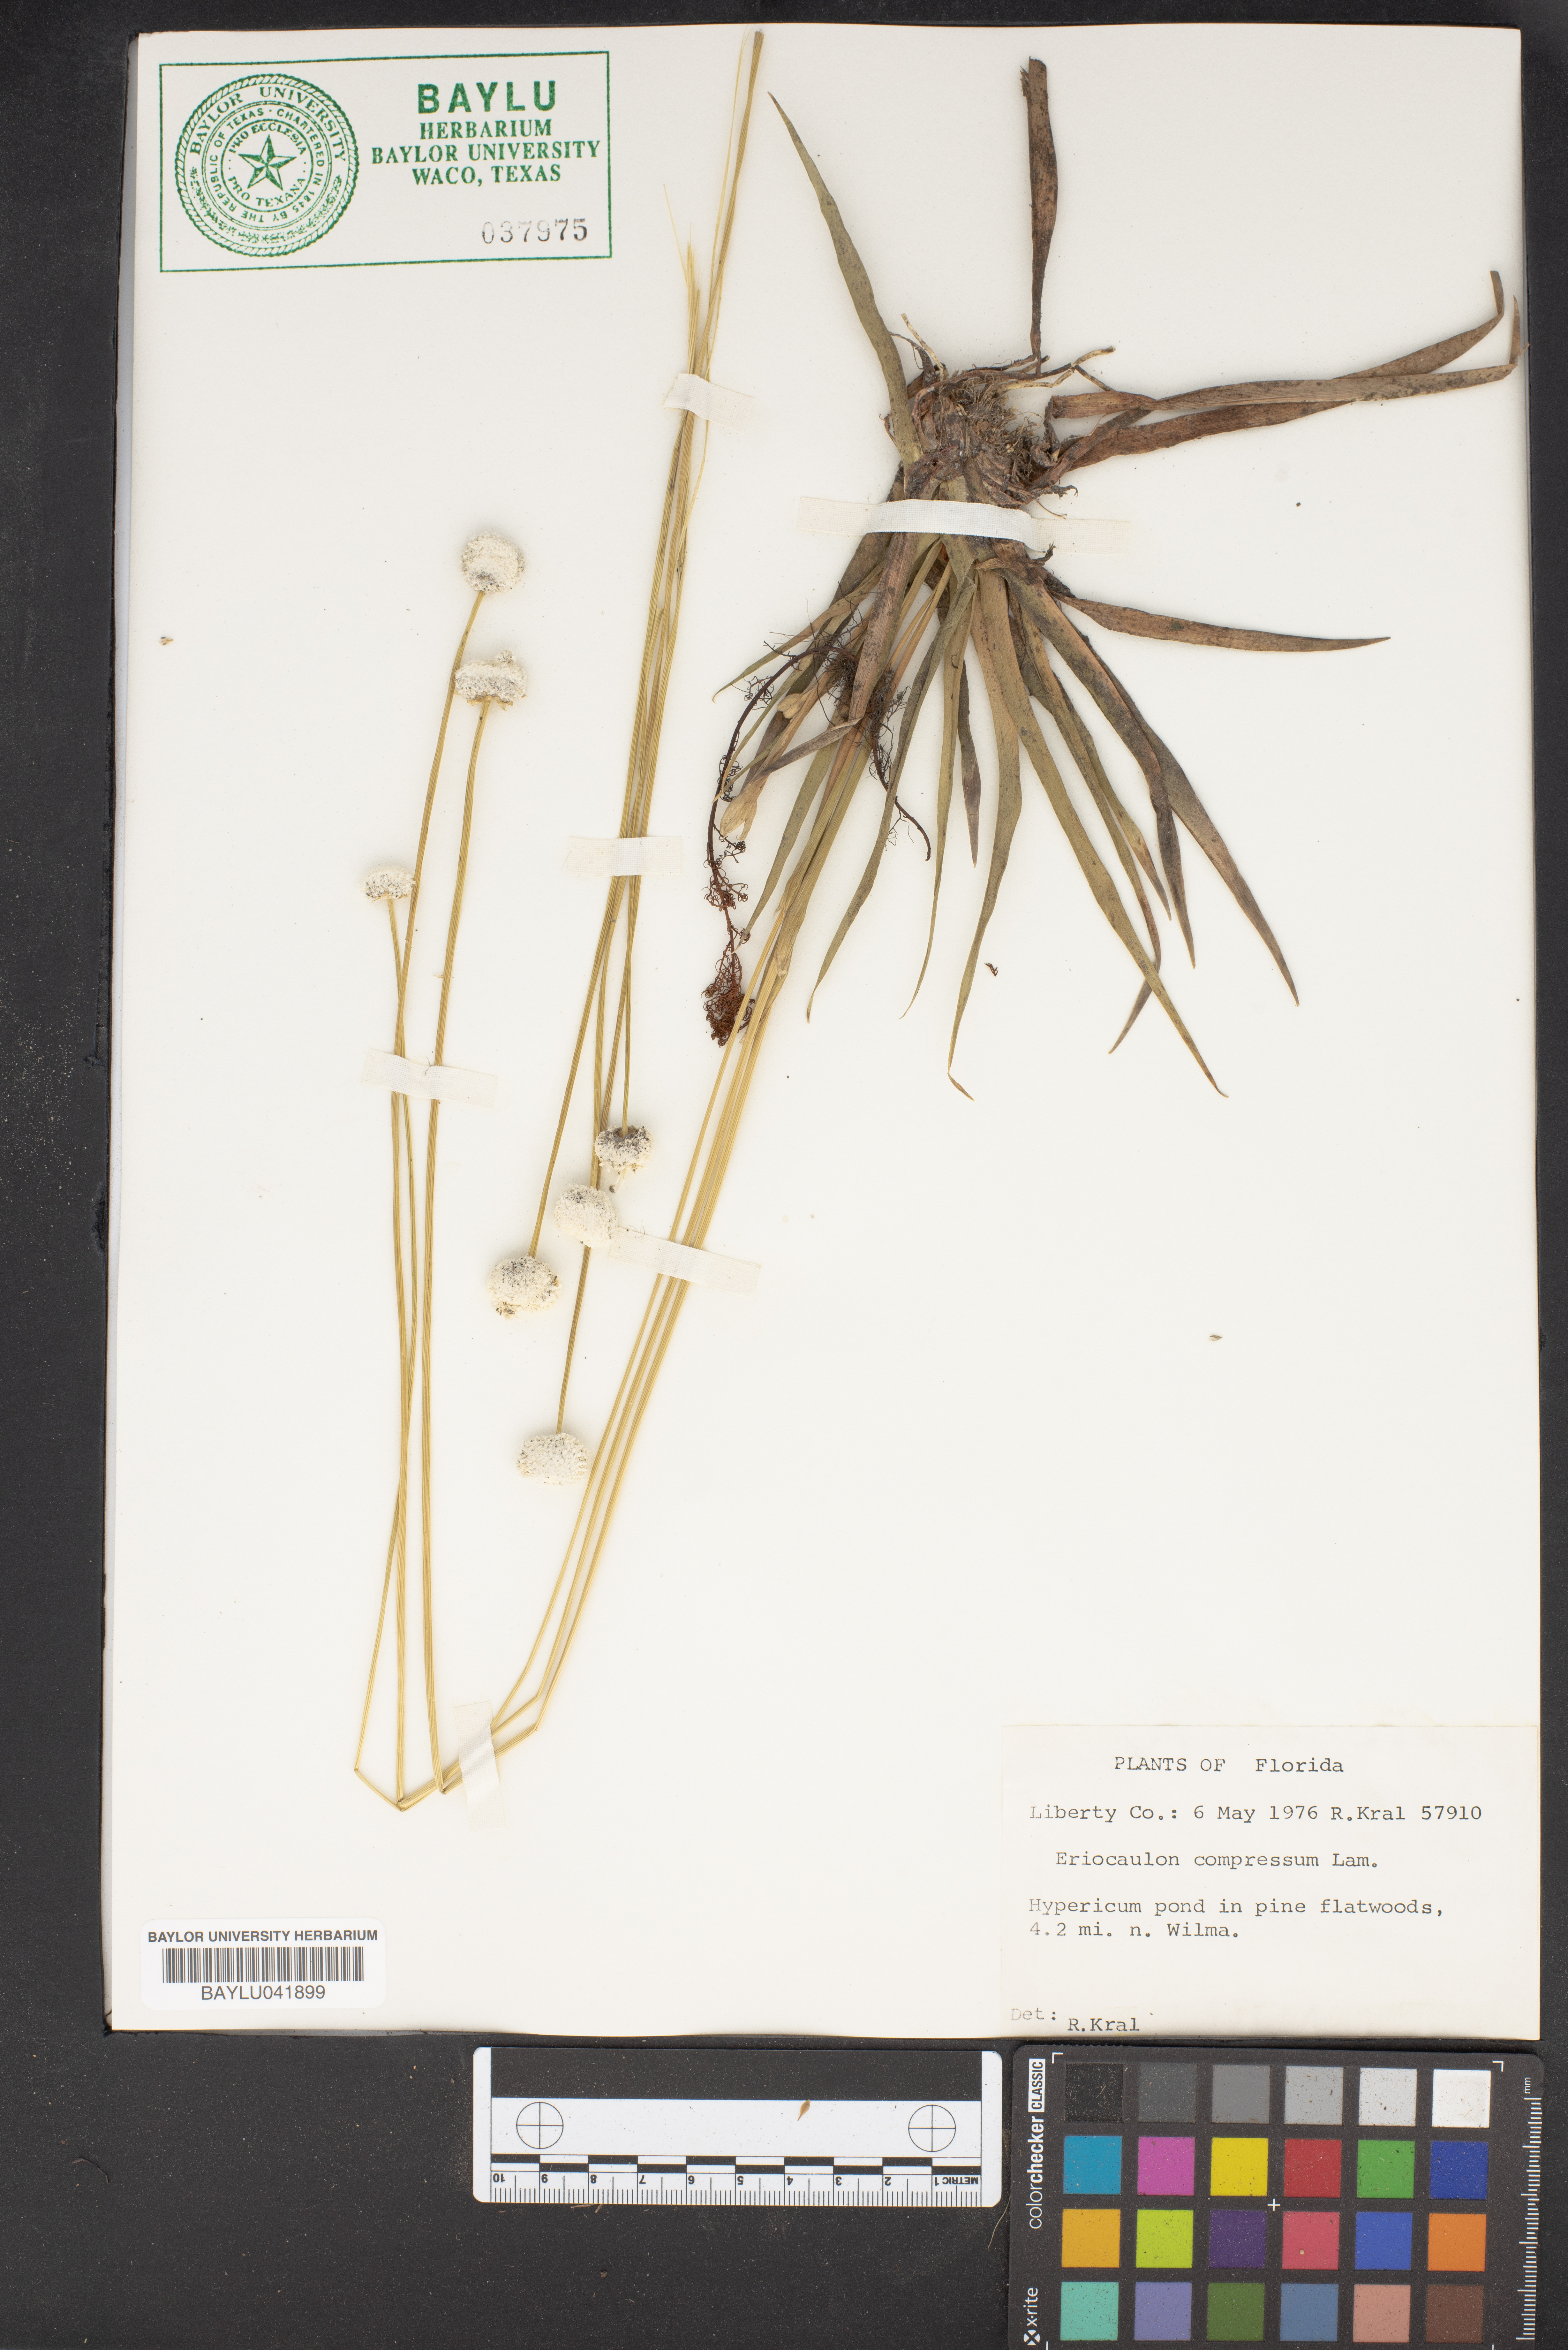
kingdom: Plantae
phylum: Tracheophyta
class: Liliopsida
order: Poales
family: Eriocaulaceae
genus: Eriocaulon
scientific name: Eriocaulon compressum
